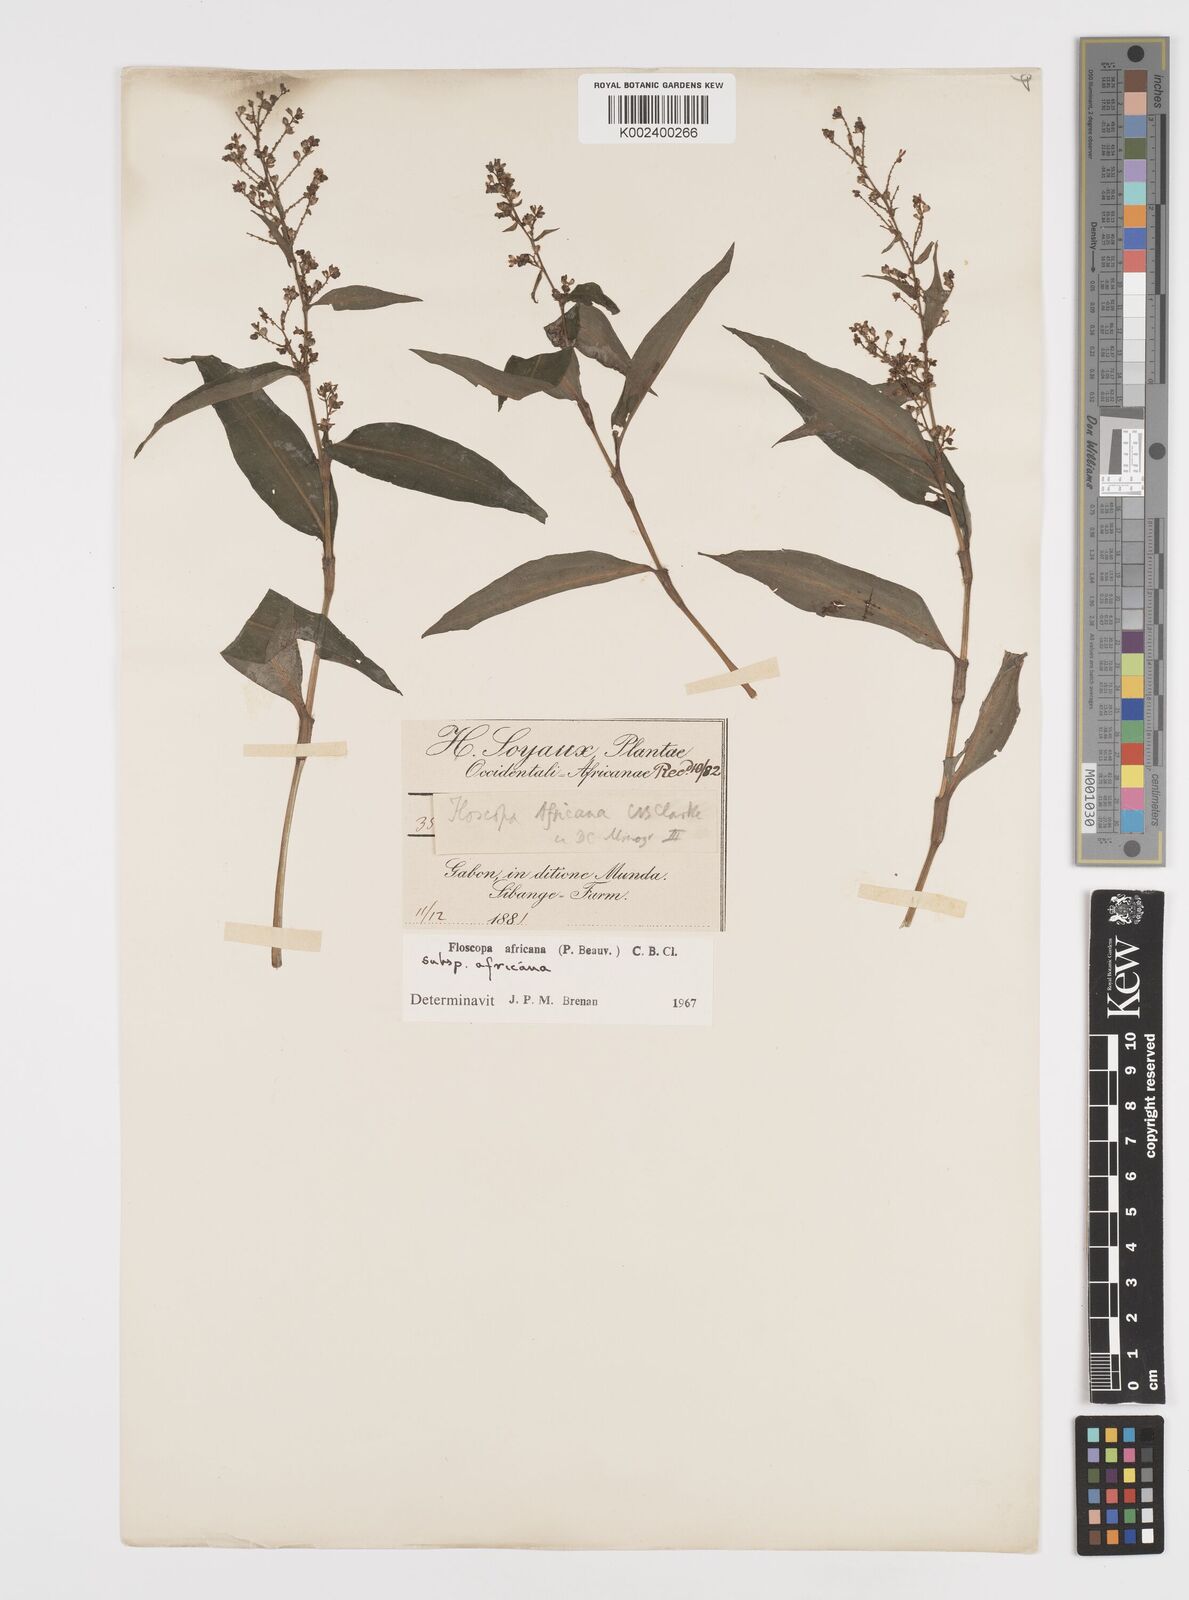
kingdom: Plantae
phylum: Tracheophyta
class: Liliopsida
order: Commelinales
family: Commelinaceae
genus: Floscopa
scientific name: Floscopa africana
